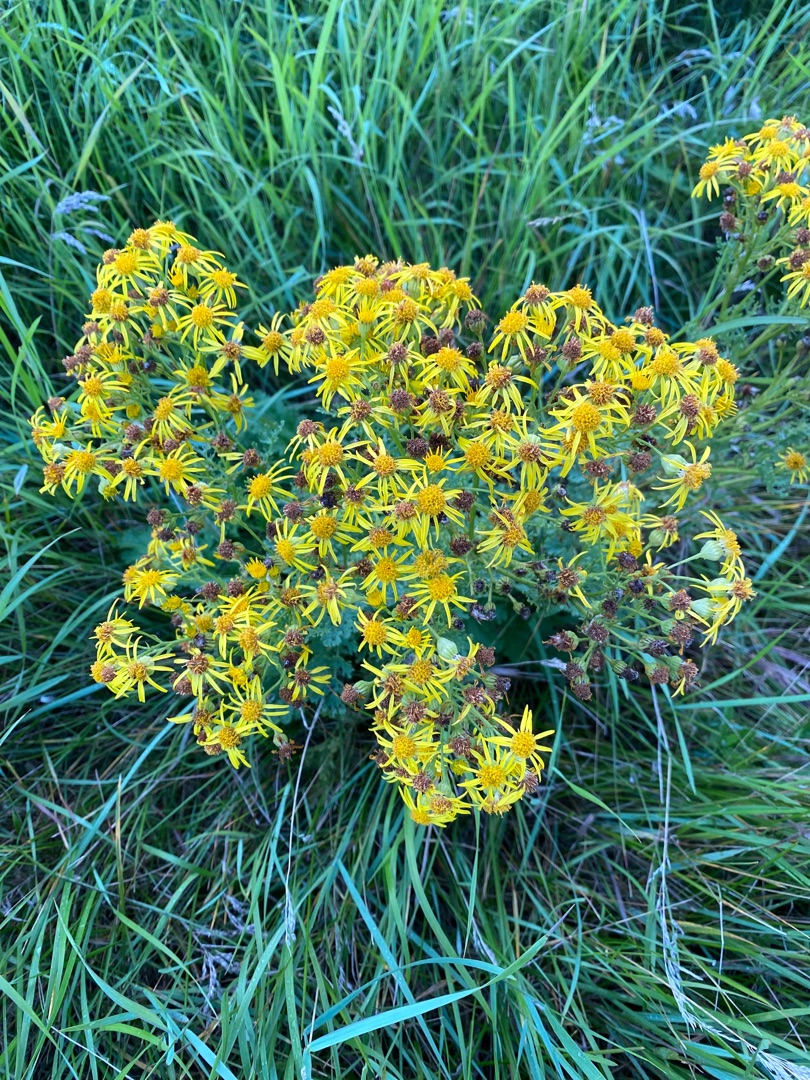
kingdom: Plantae
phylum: Tracheophyta
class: Magnoliopsida
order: Asterales
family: Asteraceae
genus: Jacobaea
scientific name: Jacobaea vulgaris
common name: Eng-brandbæger
